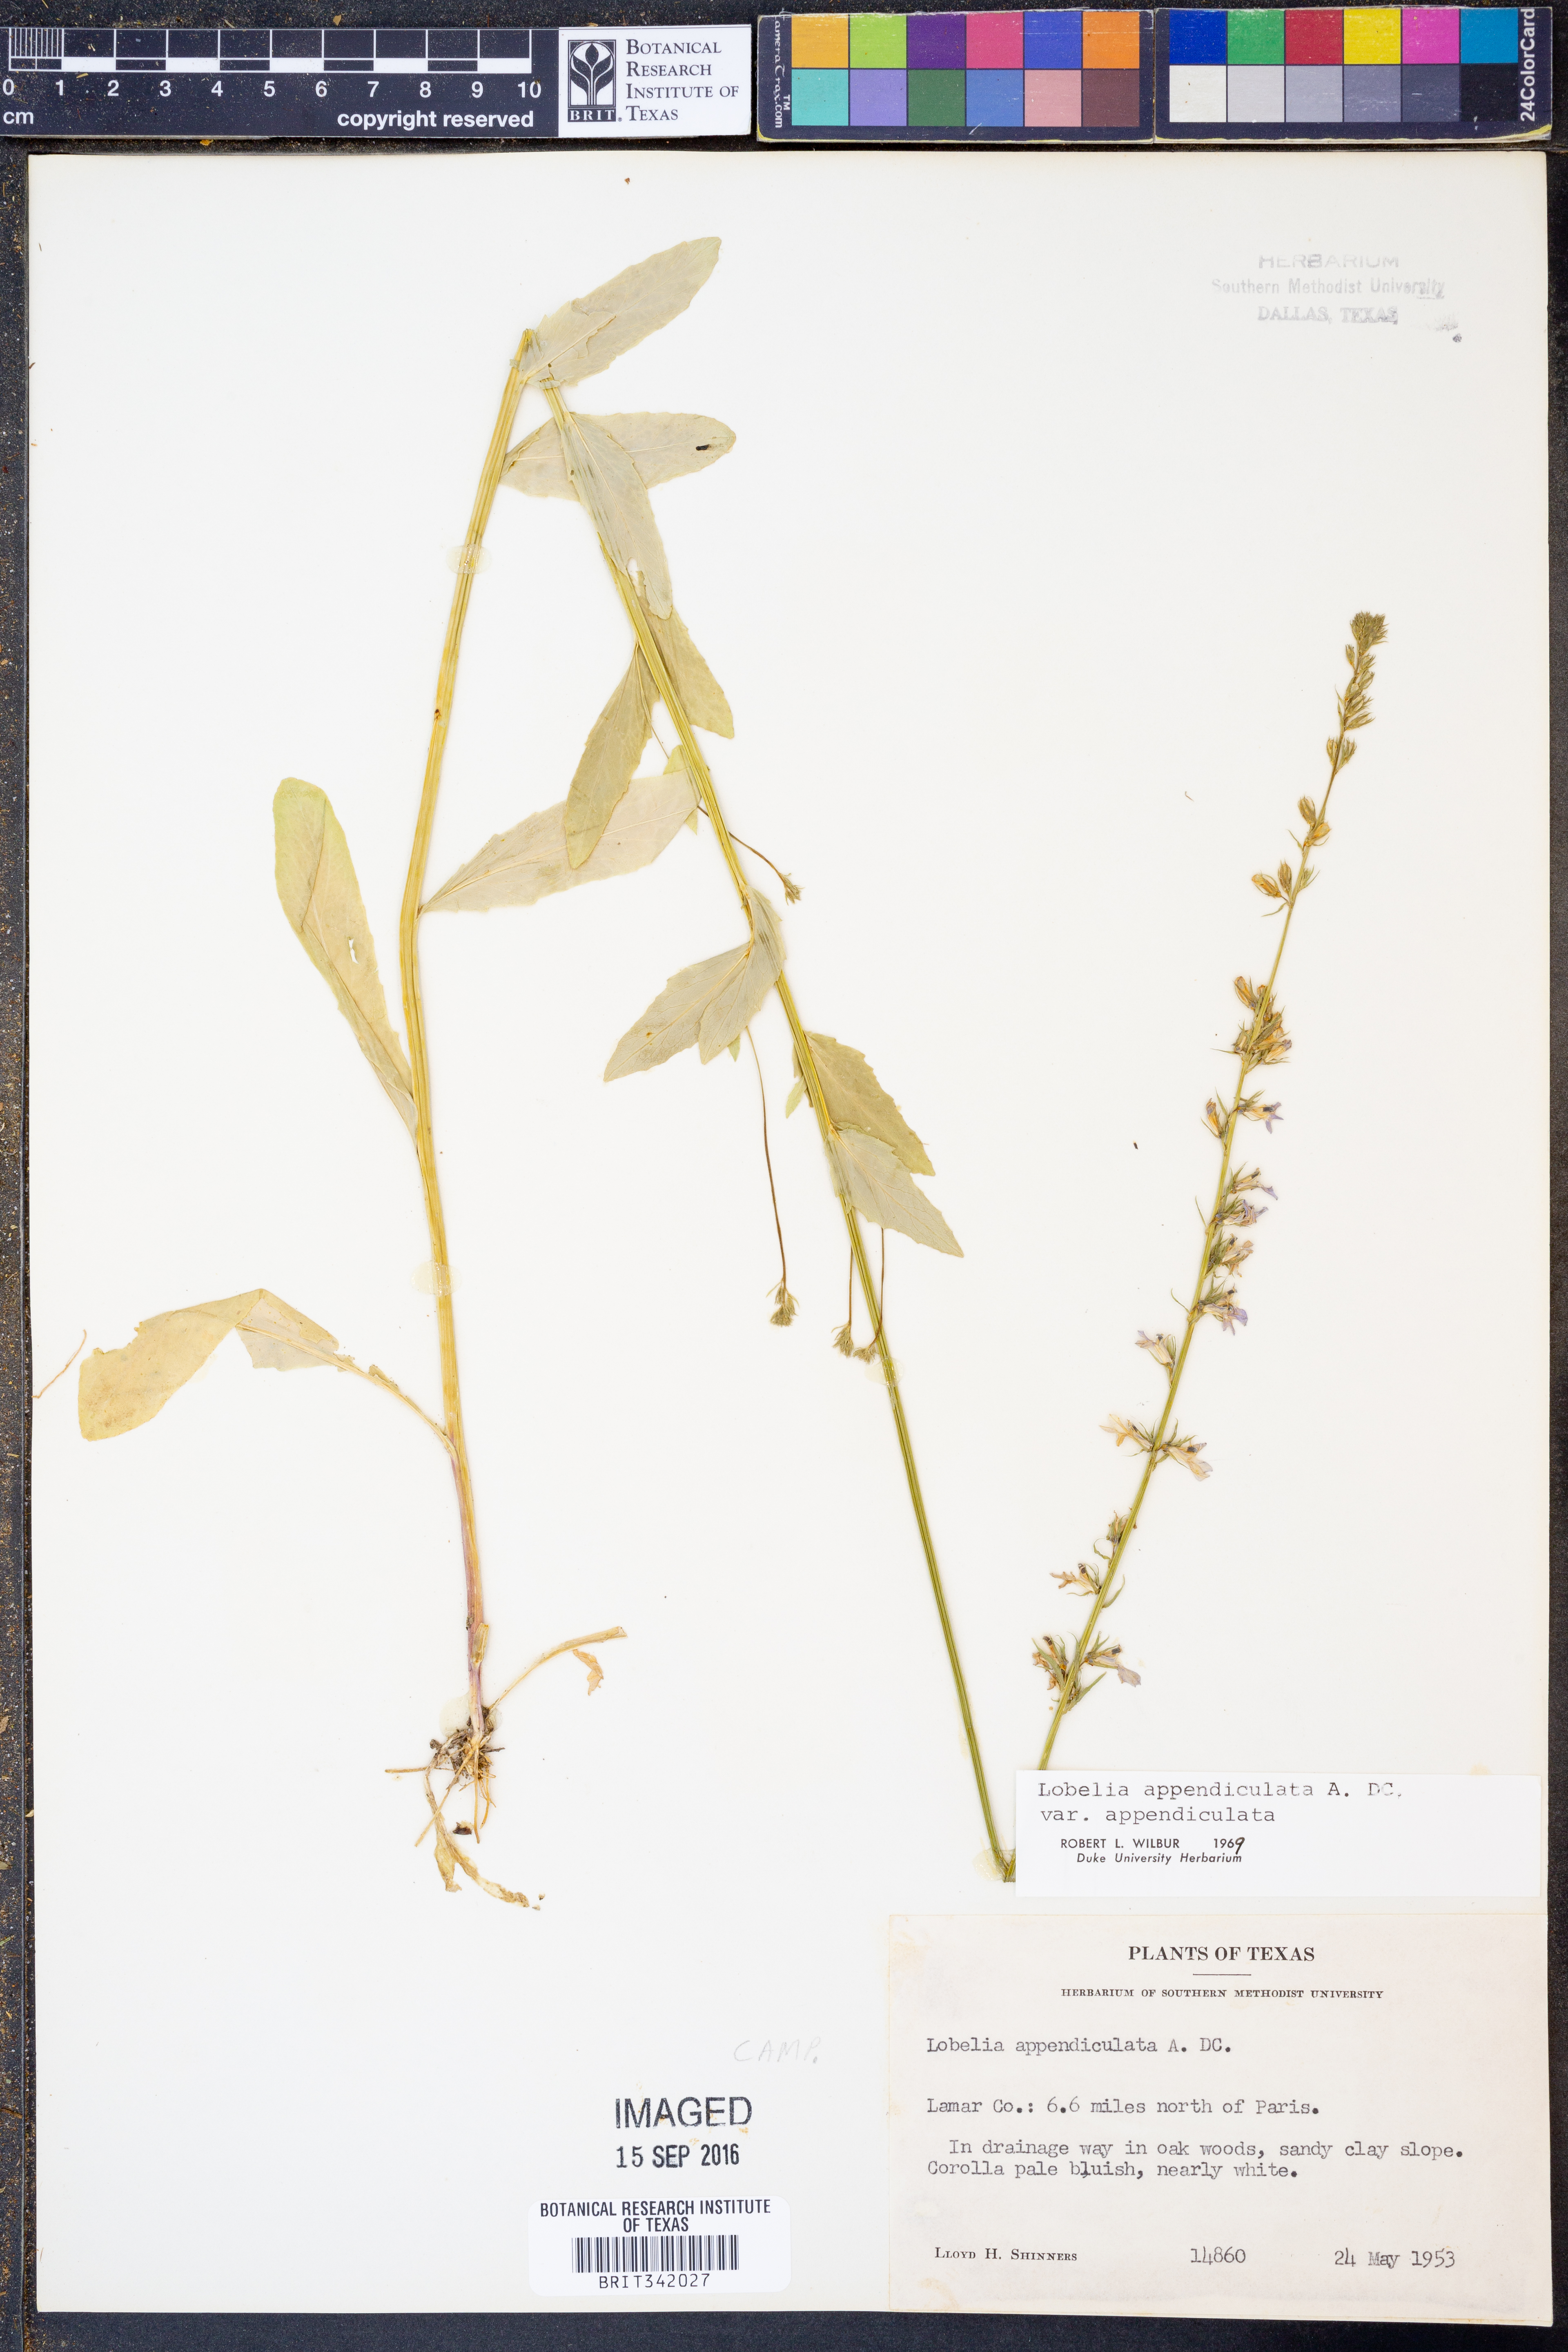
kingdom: Plantae
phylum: Tracheophyta
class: Magnoliopsida
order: Asterales
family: Campanulaceae
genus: Lobelia
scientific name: Lobelia appendiculata
